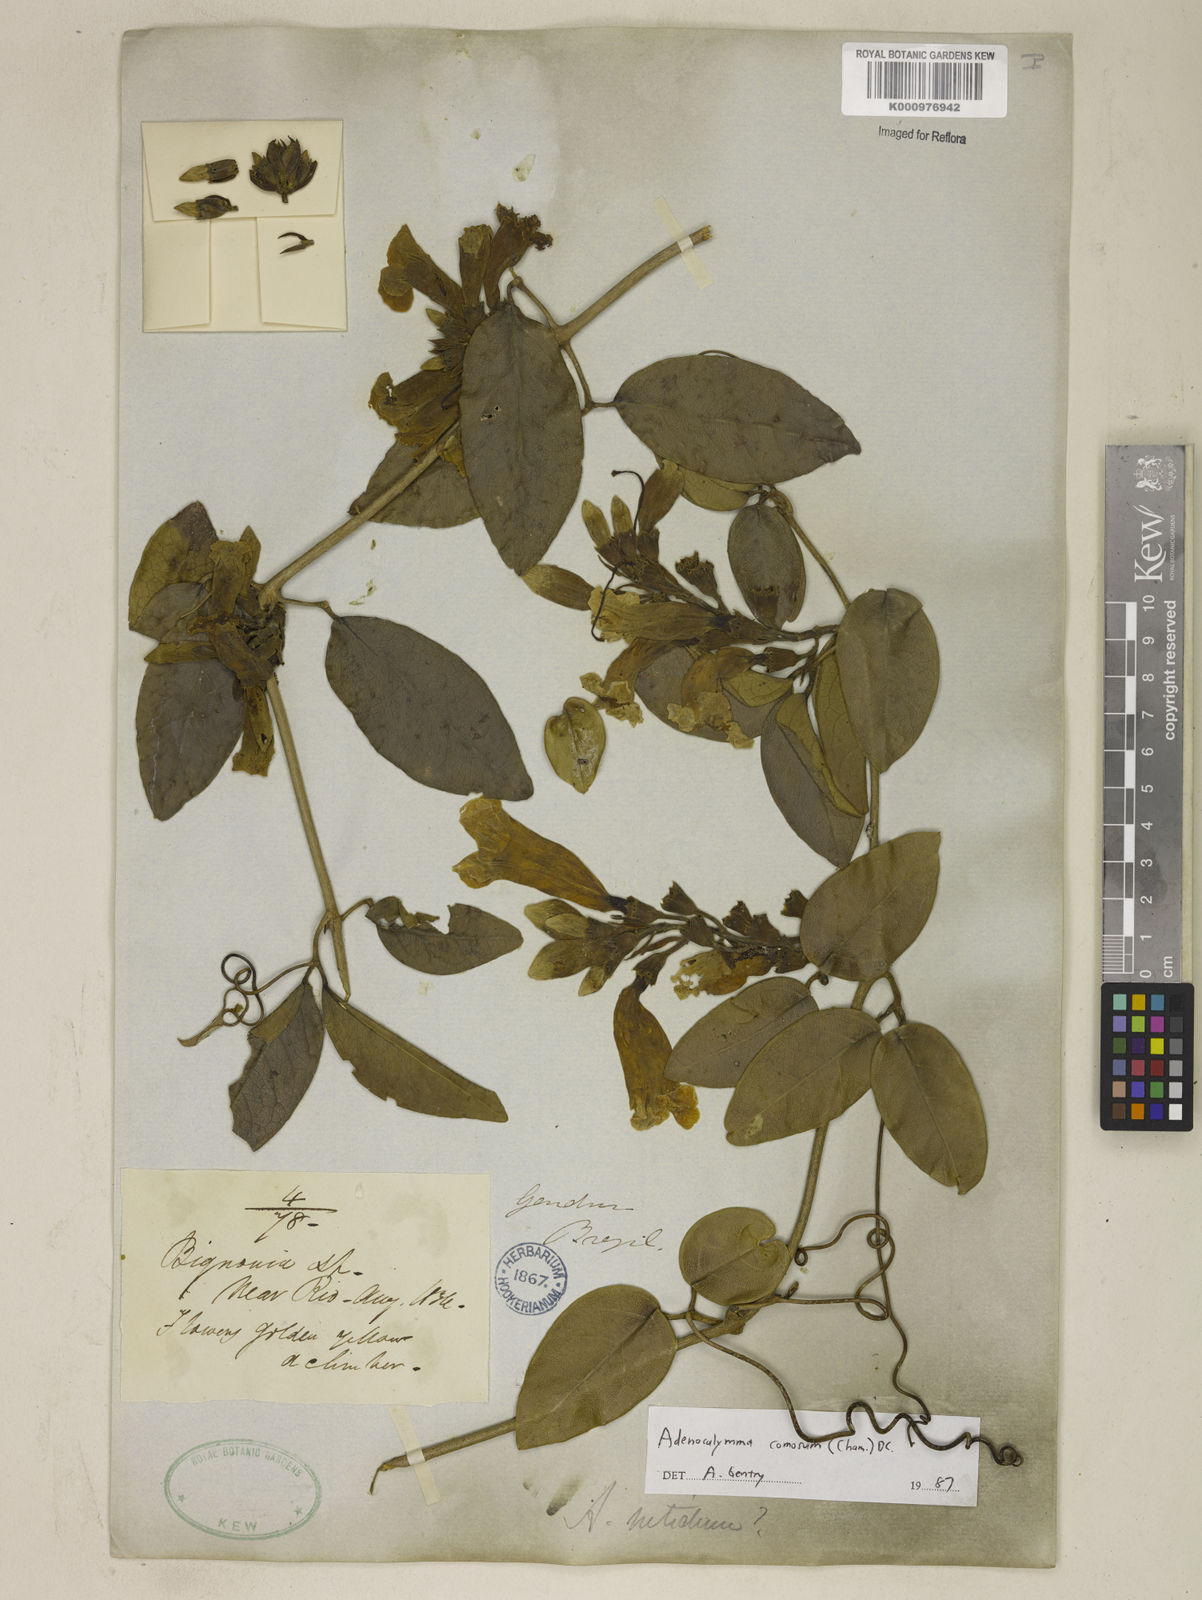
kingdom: Plantae
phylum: Tracheophyta
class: Magnoliopsida
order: Lamiales
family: Bignoniaceae
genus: Adenocalymma
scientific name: Adenocalymma acutissimum
